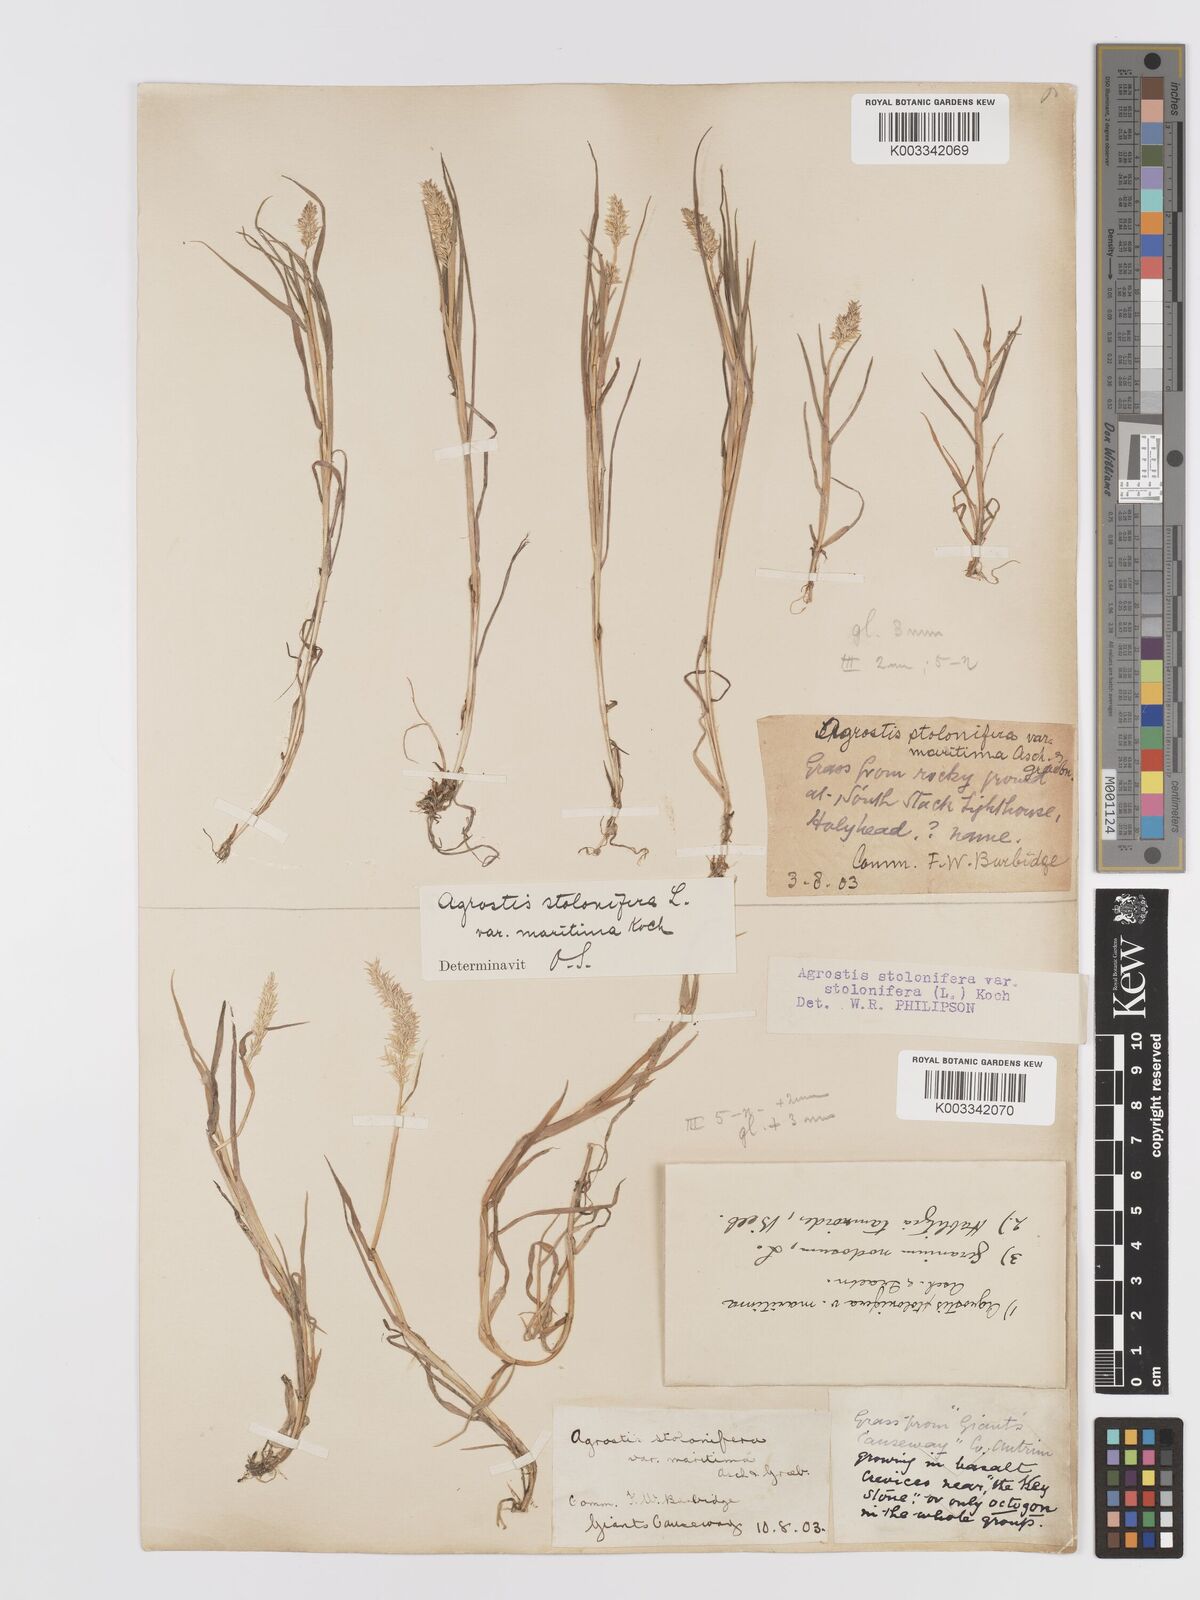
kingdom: Plantae
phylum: Tracheophyta
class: Liliopsida
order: Poales
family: Poaceae
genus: Agrostis
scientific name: Agrostis stolonifera
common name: Creeping bentgrass
